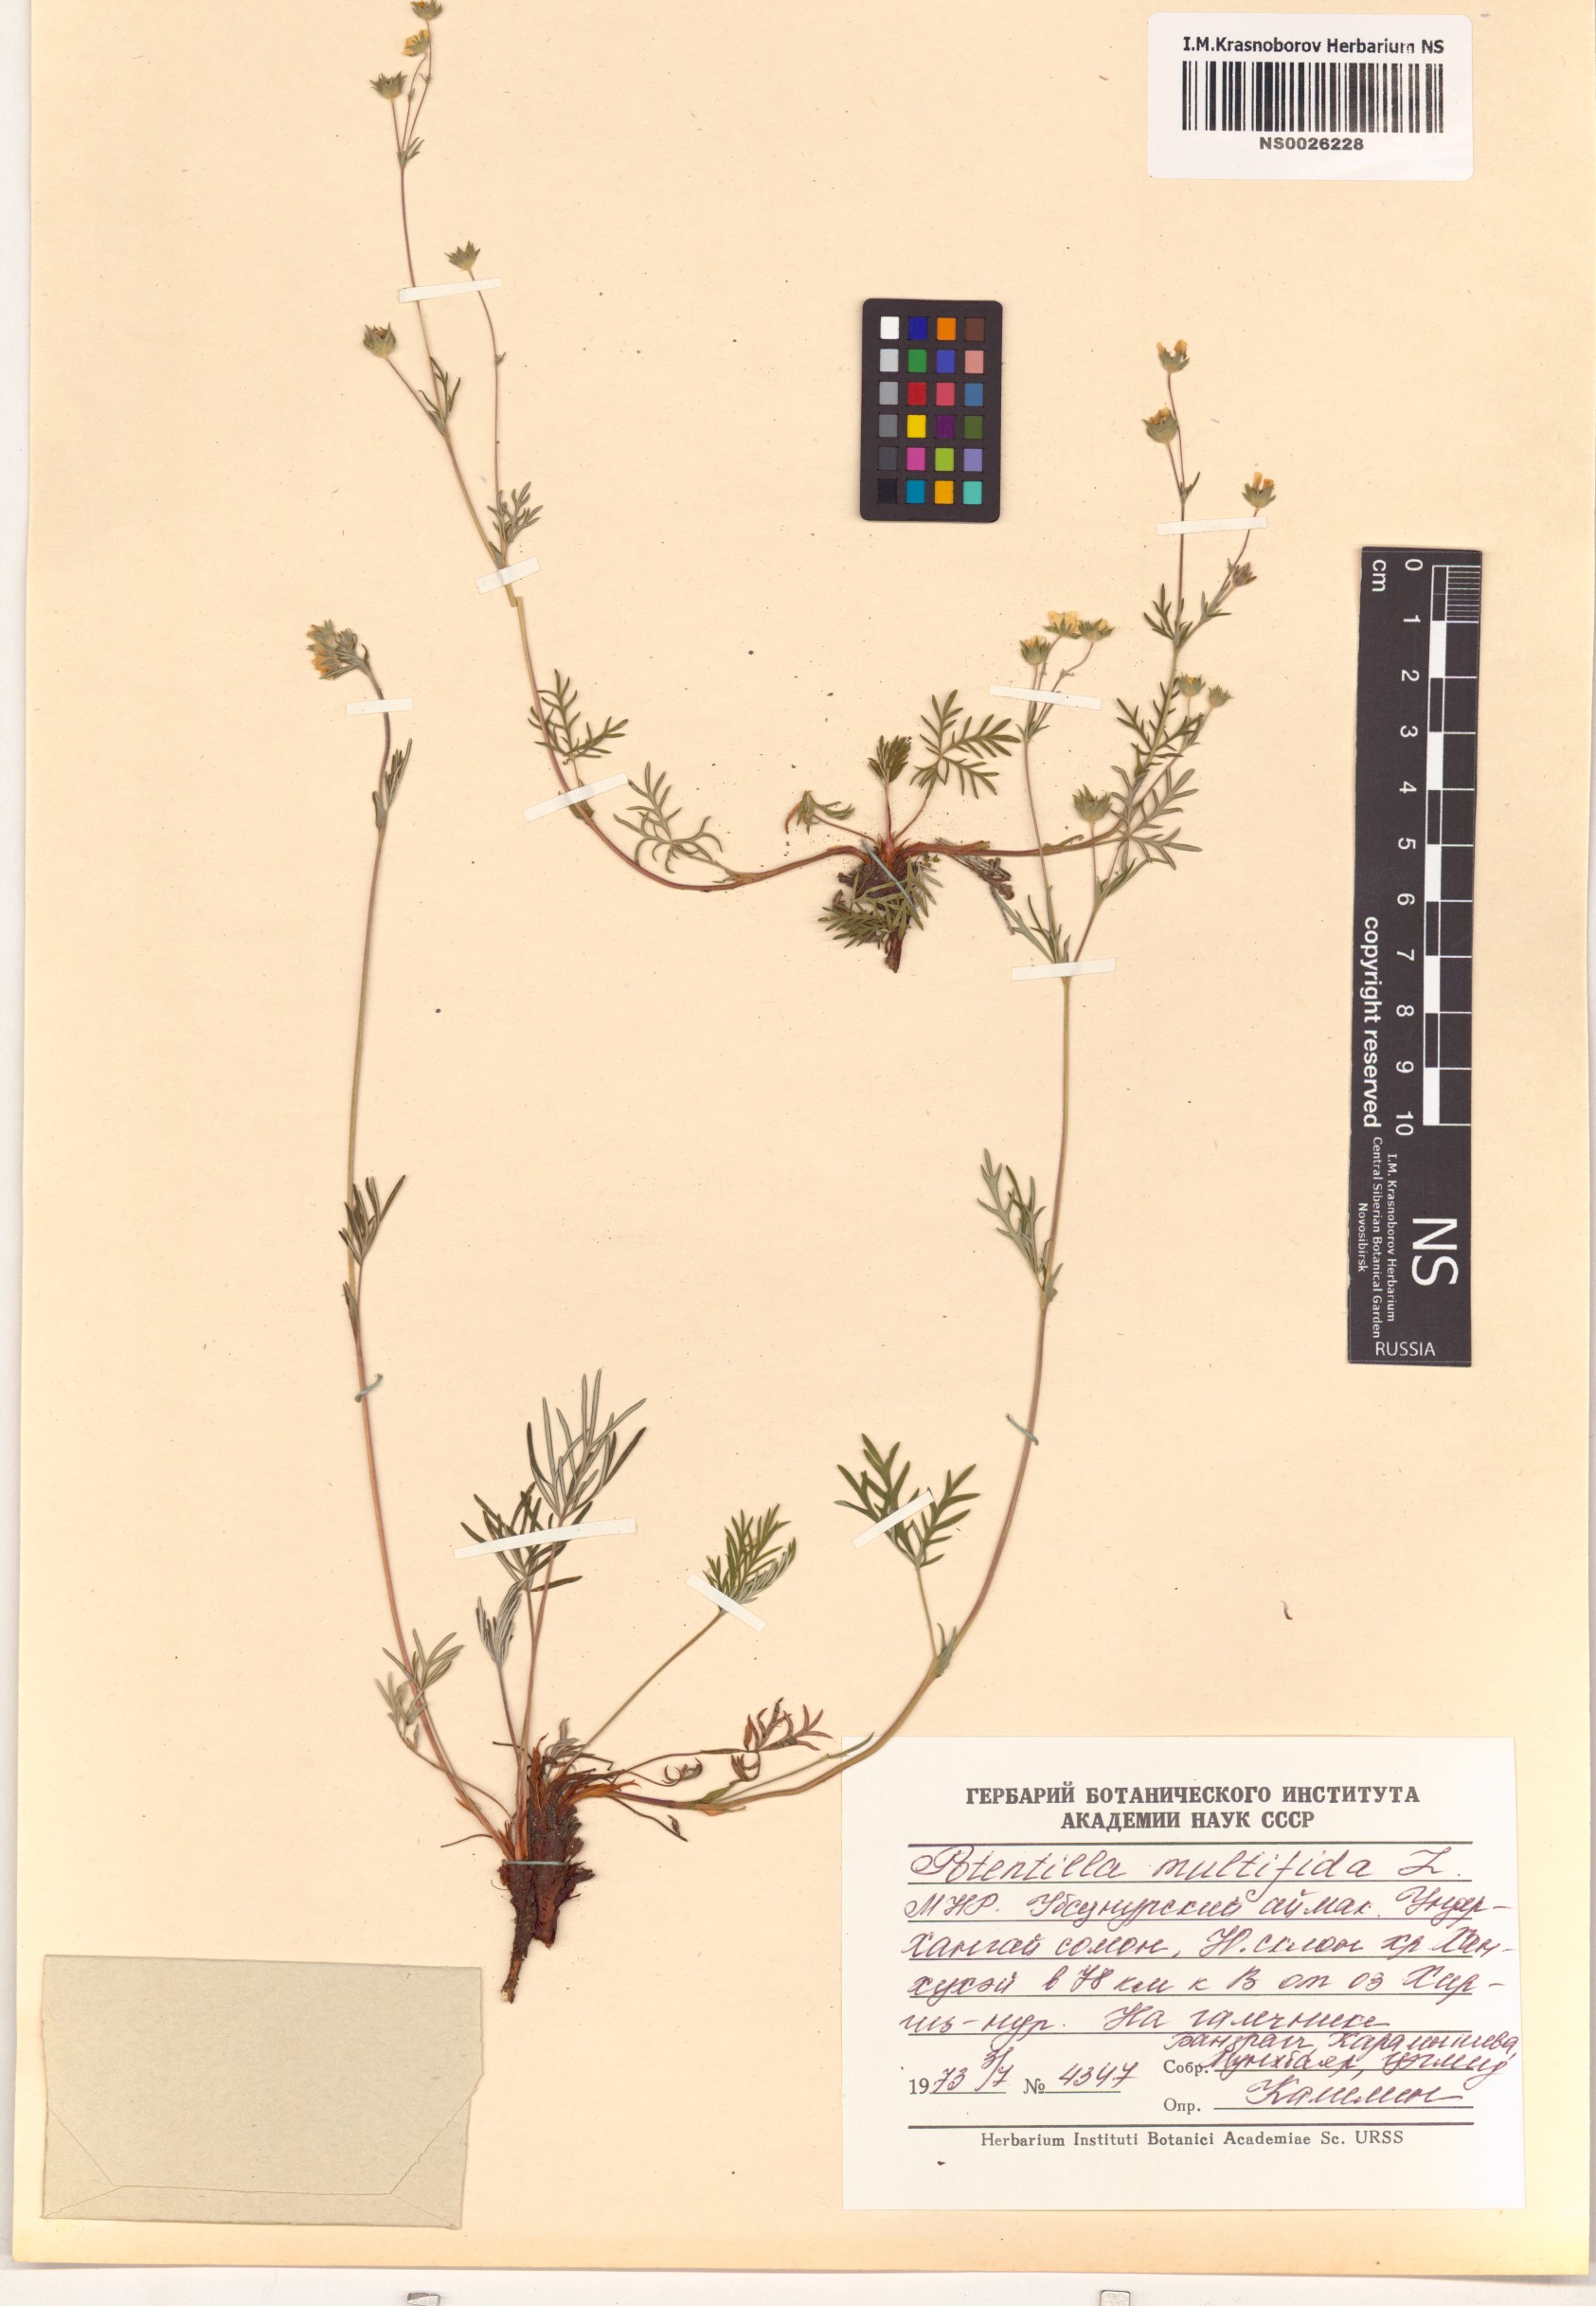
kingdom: Plantae
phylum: Tracheophyta
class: Liliopsida
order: Alismatales
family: Potamogetonaceae
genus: Potamogeton
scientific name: Potamogeton gramineus
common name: Various-leaved pondweed
